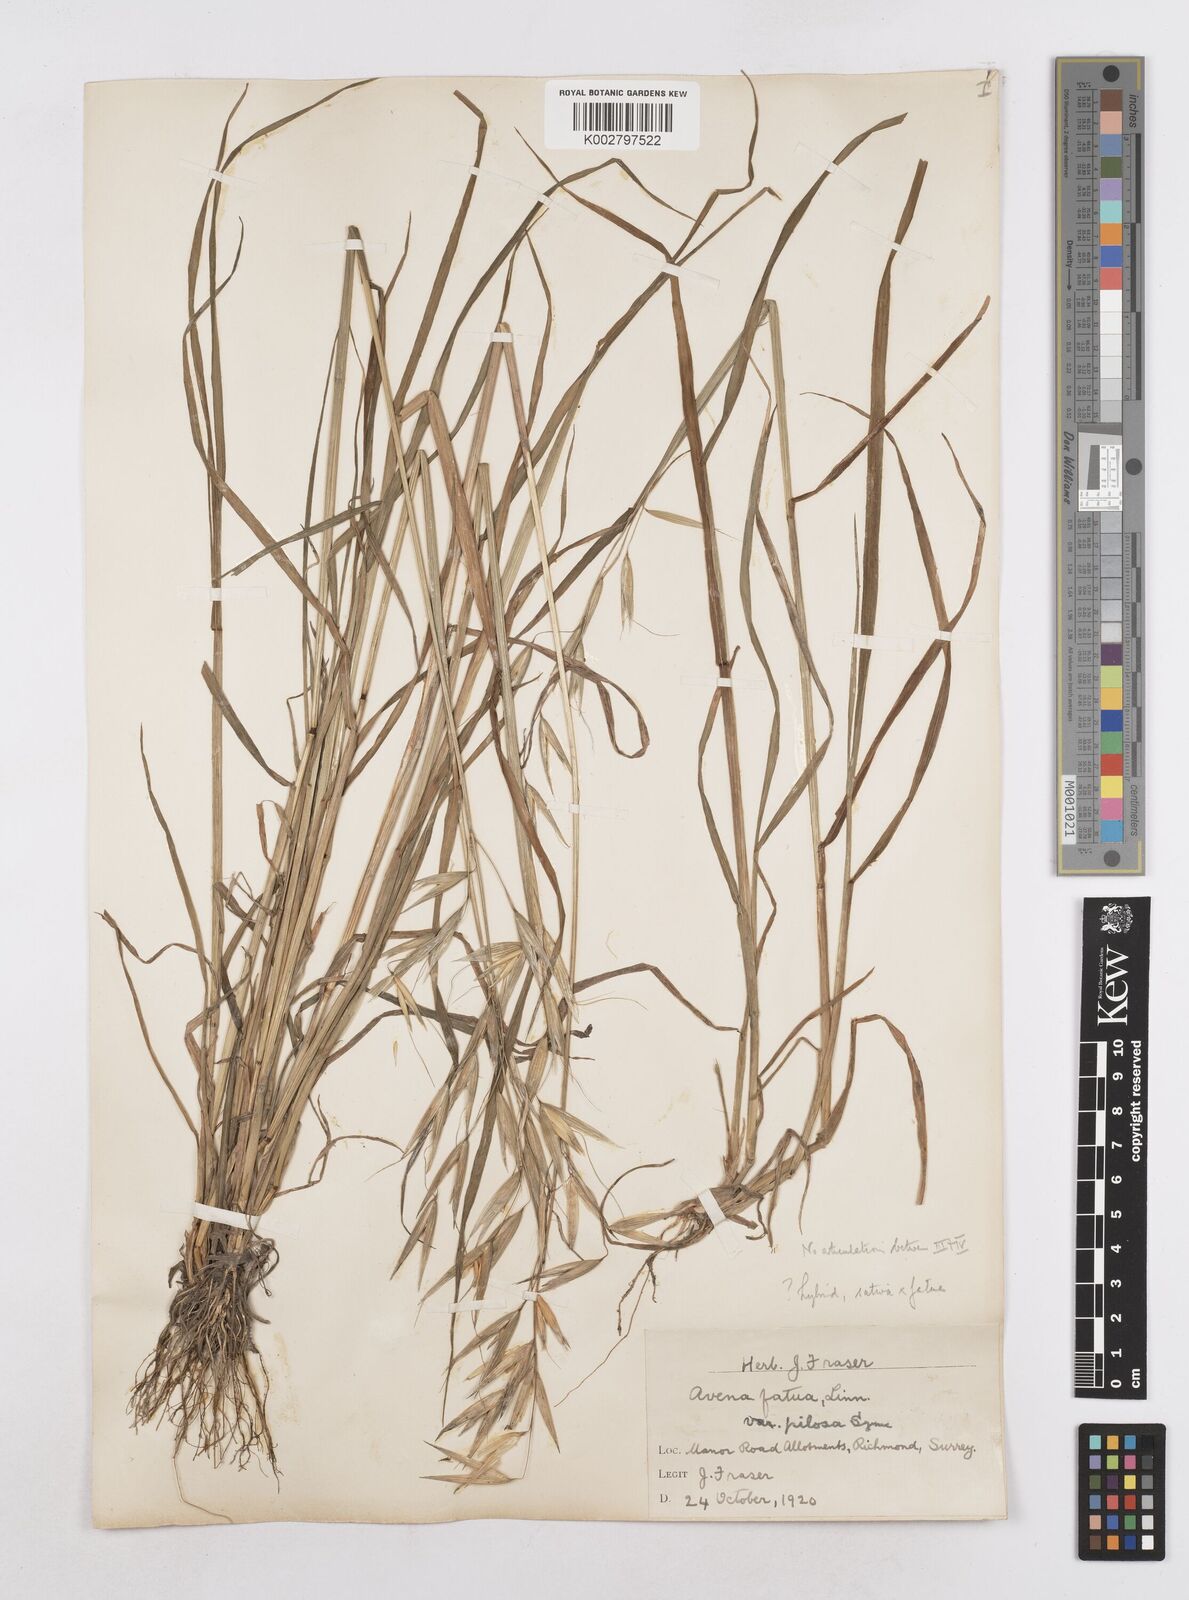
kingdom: Plantae
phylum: Tracheophyta
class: Liliopsida
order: Poales
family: Poaceae
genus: Avena
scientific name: Avena fatua
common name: Wild oat
